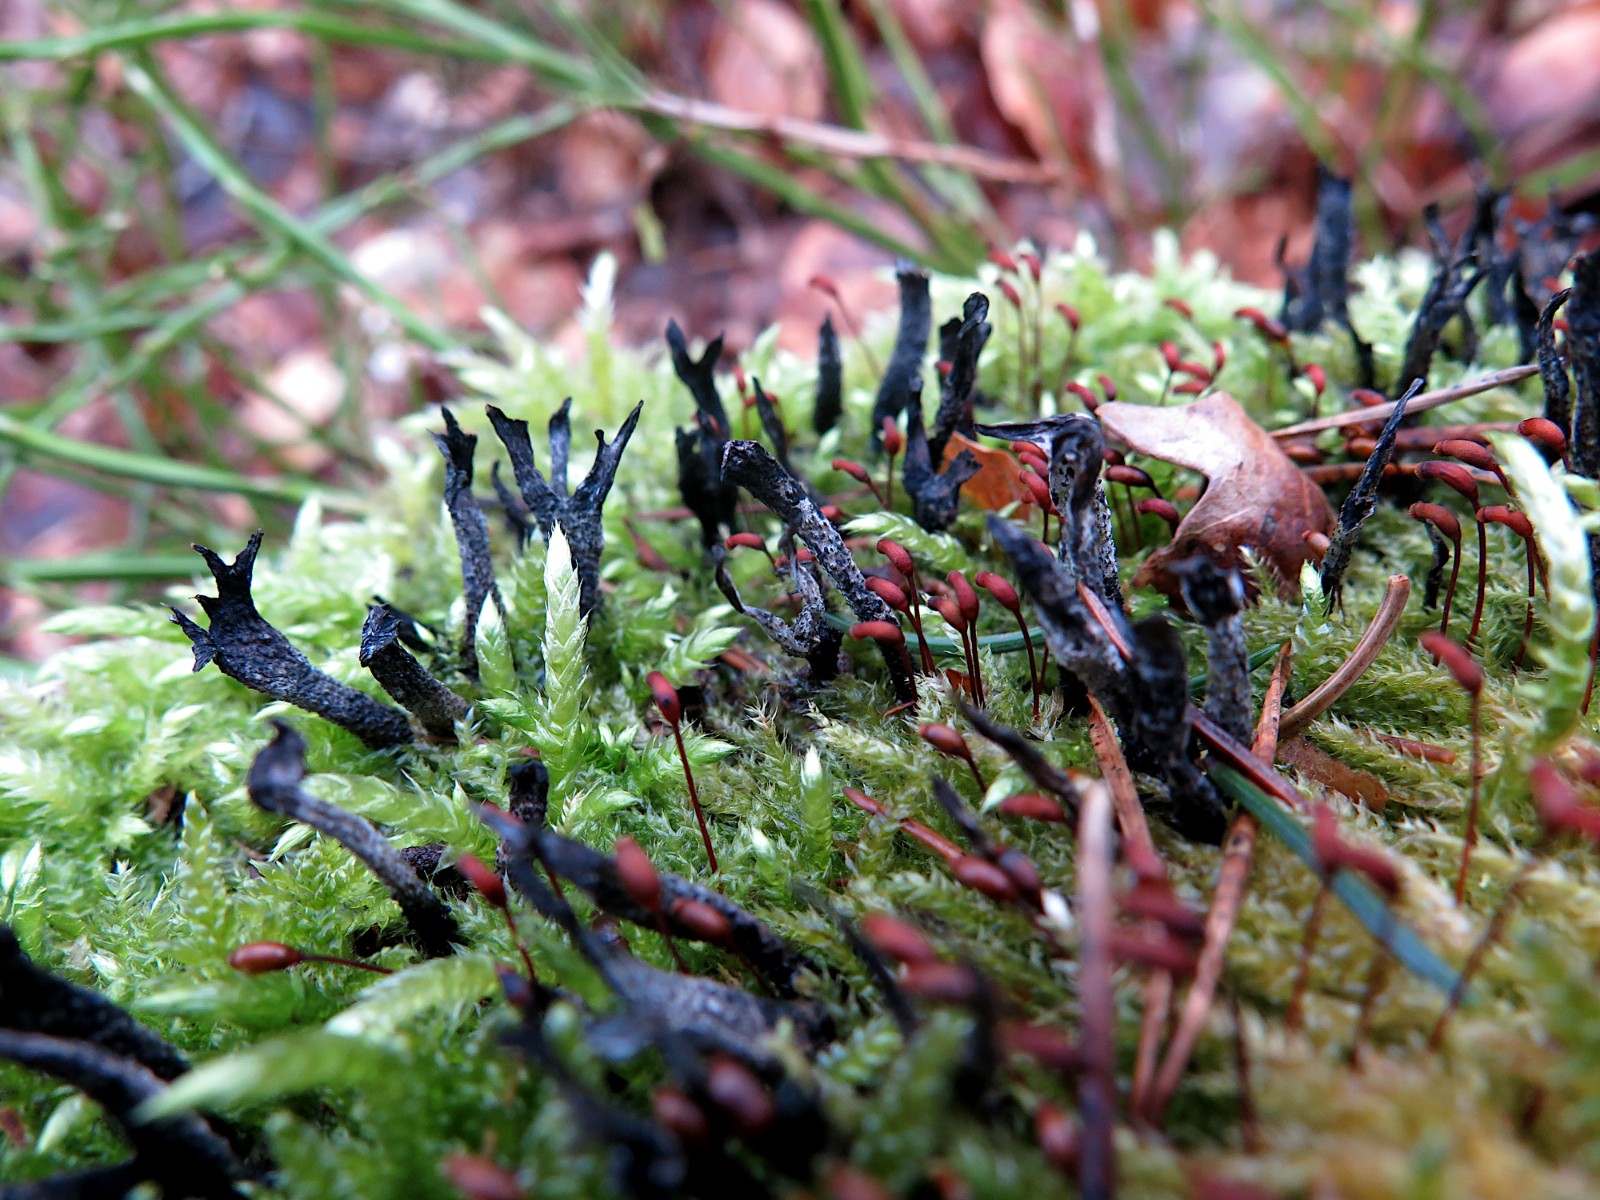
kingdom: Fungi
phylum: Ascomycota
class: Sordariomycetes
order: Xylariales
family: Xylariaceae
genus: Xylaria
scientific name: Xylaria hypoxylon
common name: grenet stødsvamp
